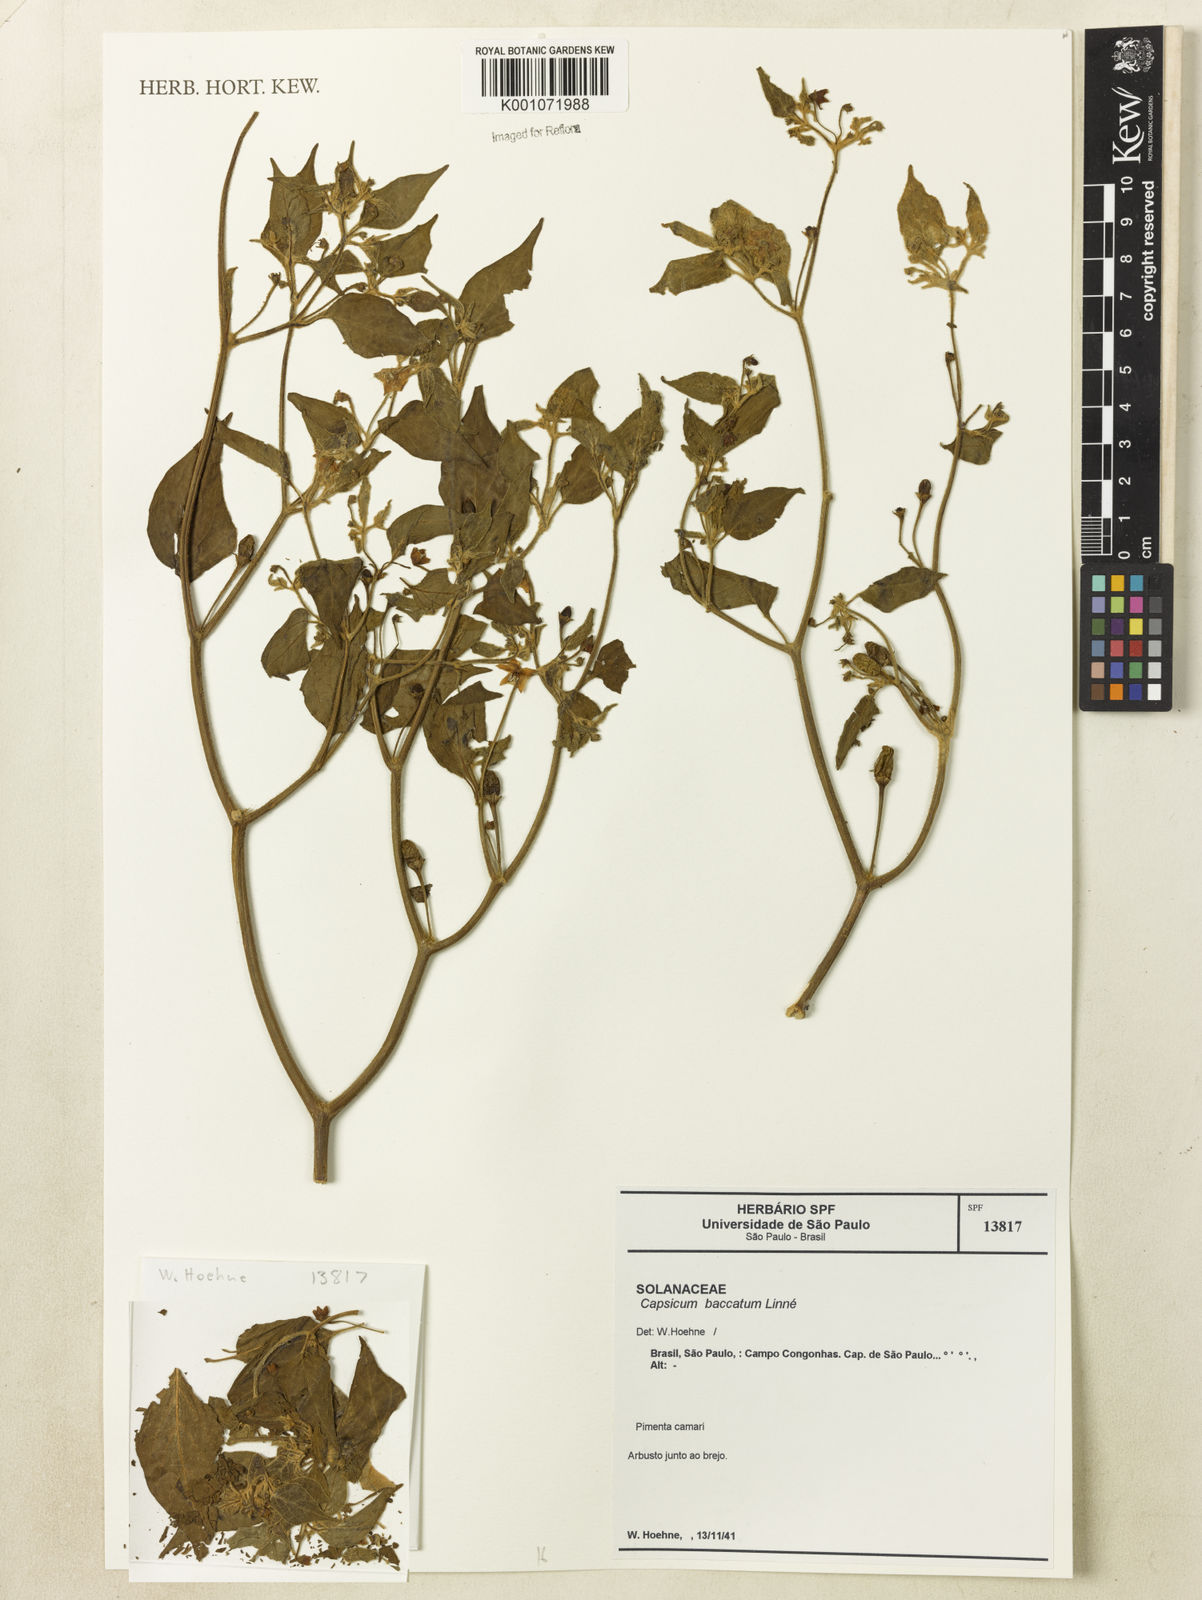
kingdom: Plantae
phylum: Tracheophyta
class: Magnoliopsida
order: Solanales
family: Solanaceae
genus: Capsicum
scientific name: Capsicum baccatum
